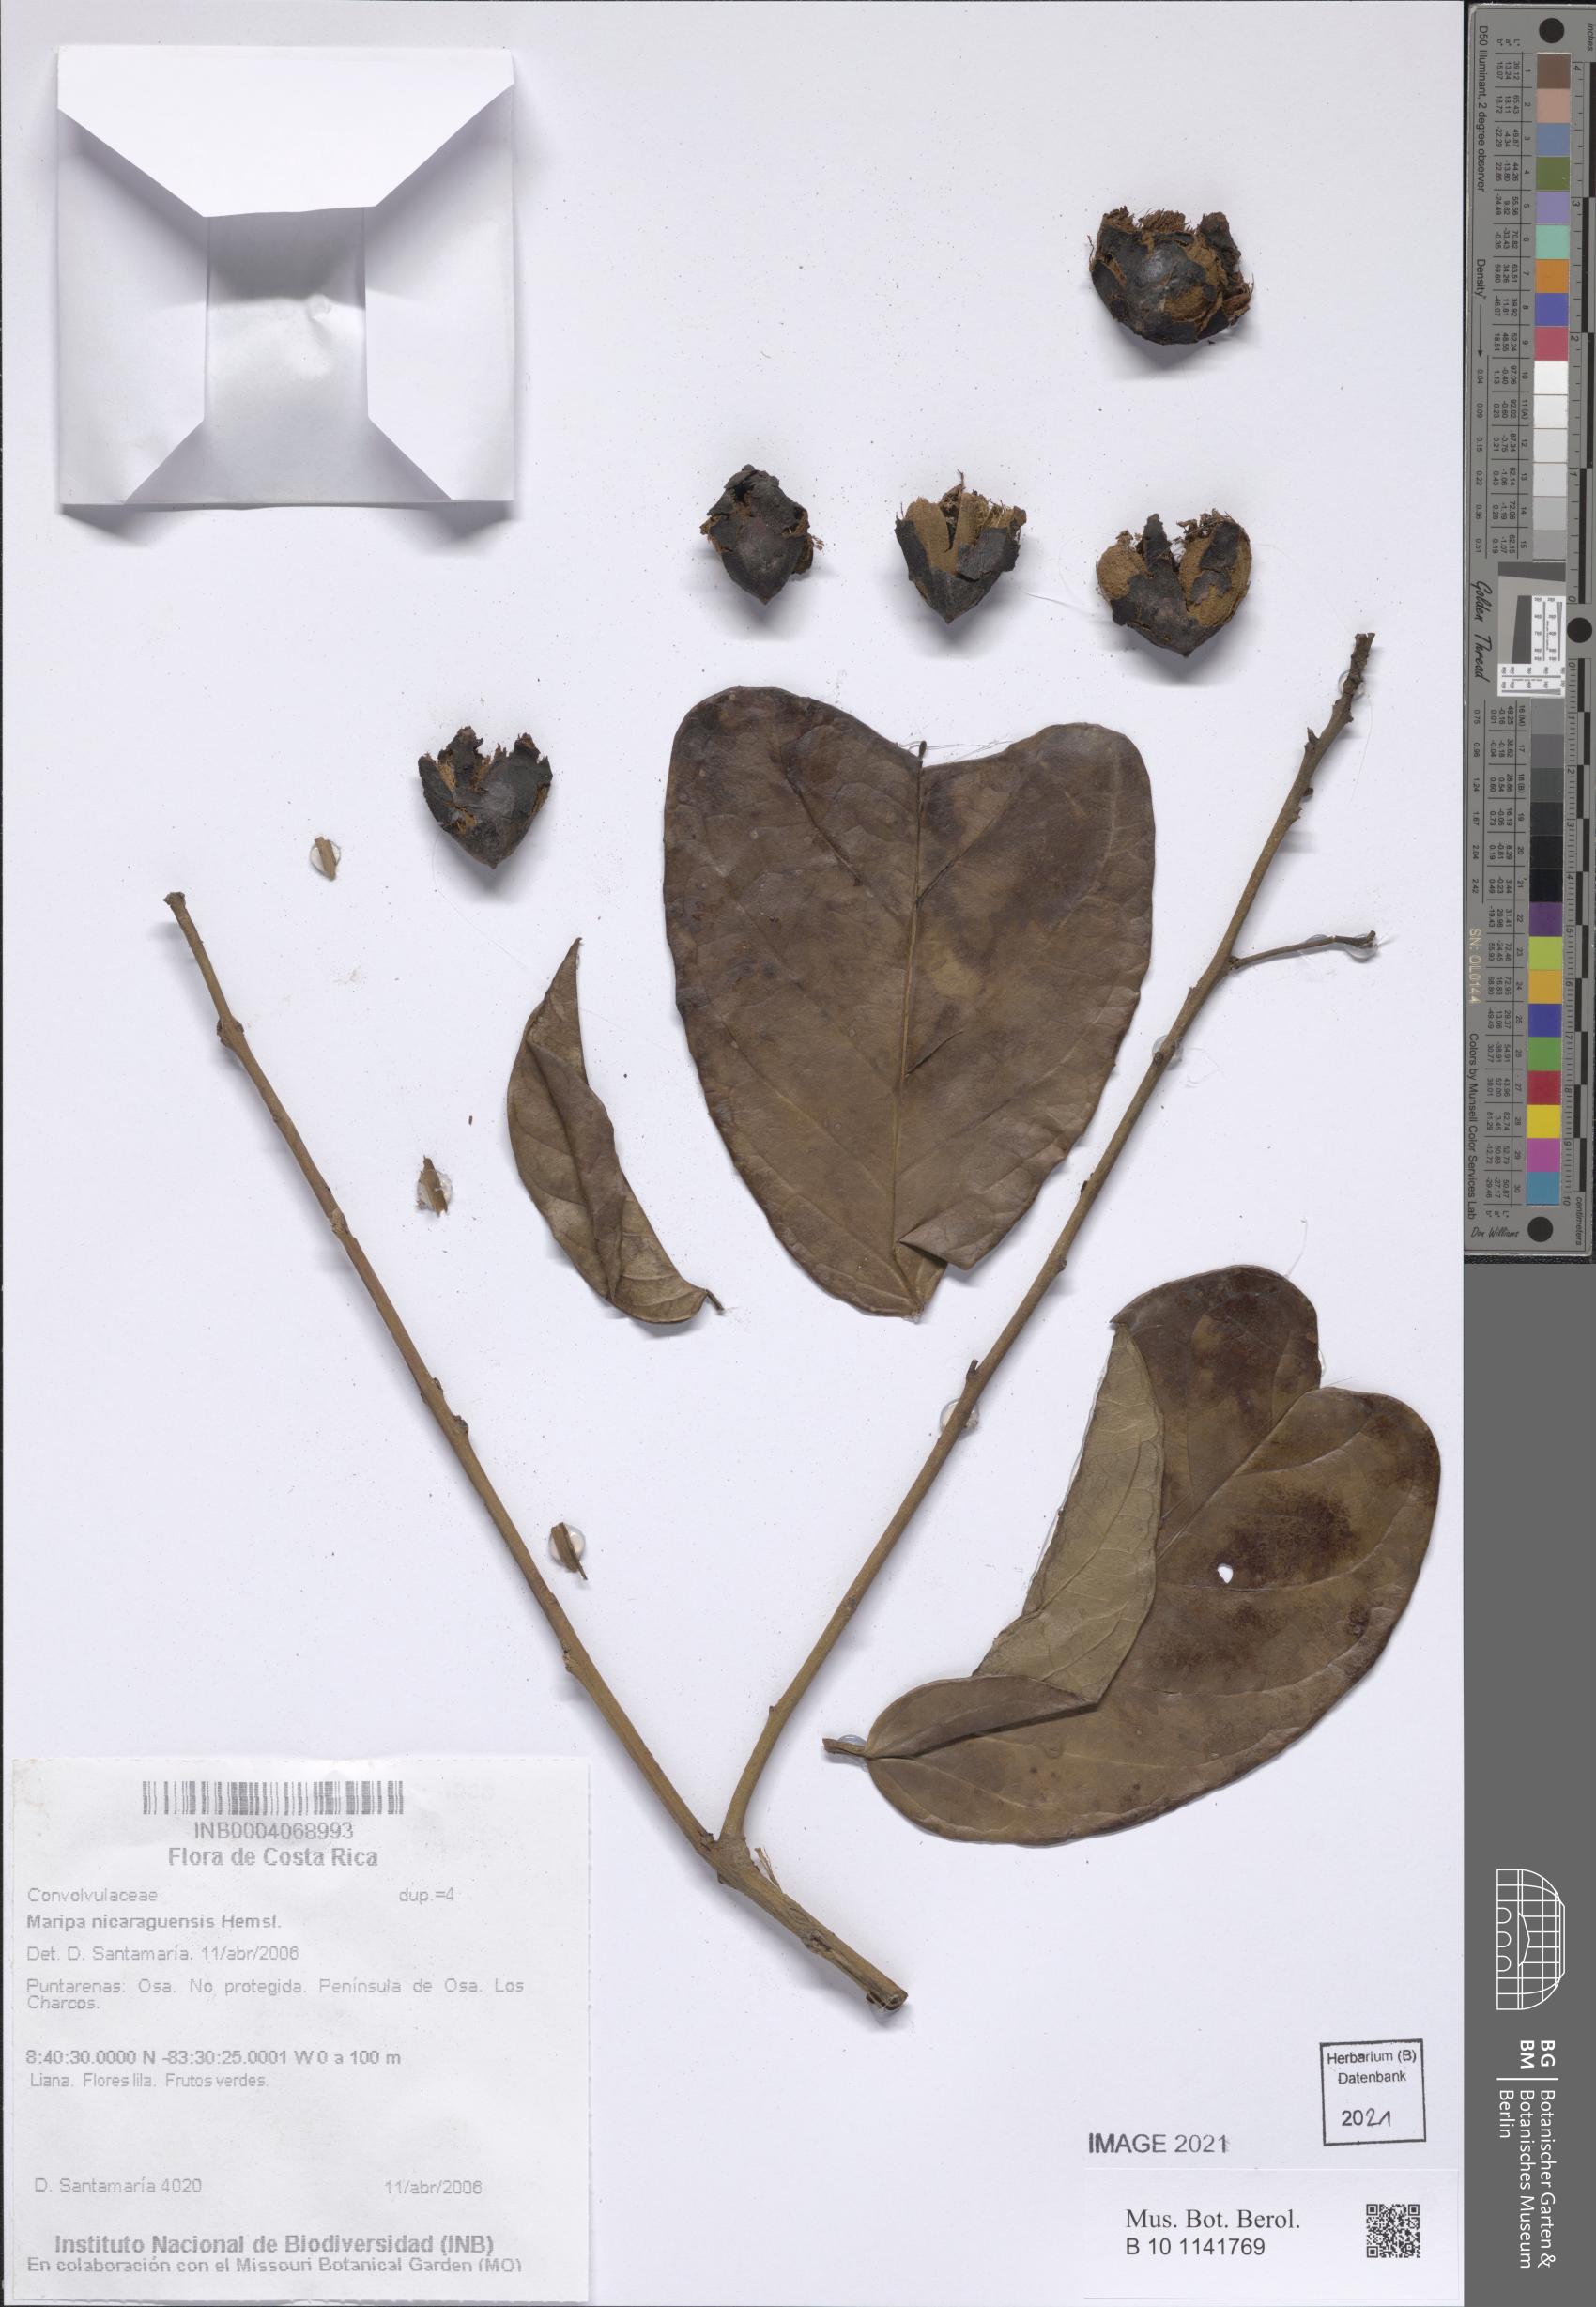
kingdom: Plantae
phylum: Tracheophyta
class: Magnoliopsida
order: Solanales
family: Convolvulaceae
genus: Maripa
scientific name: Maripa nicaraguensis
